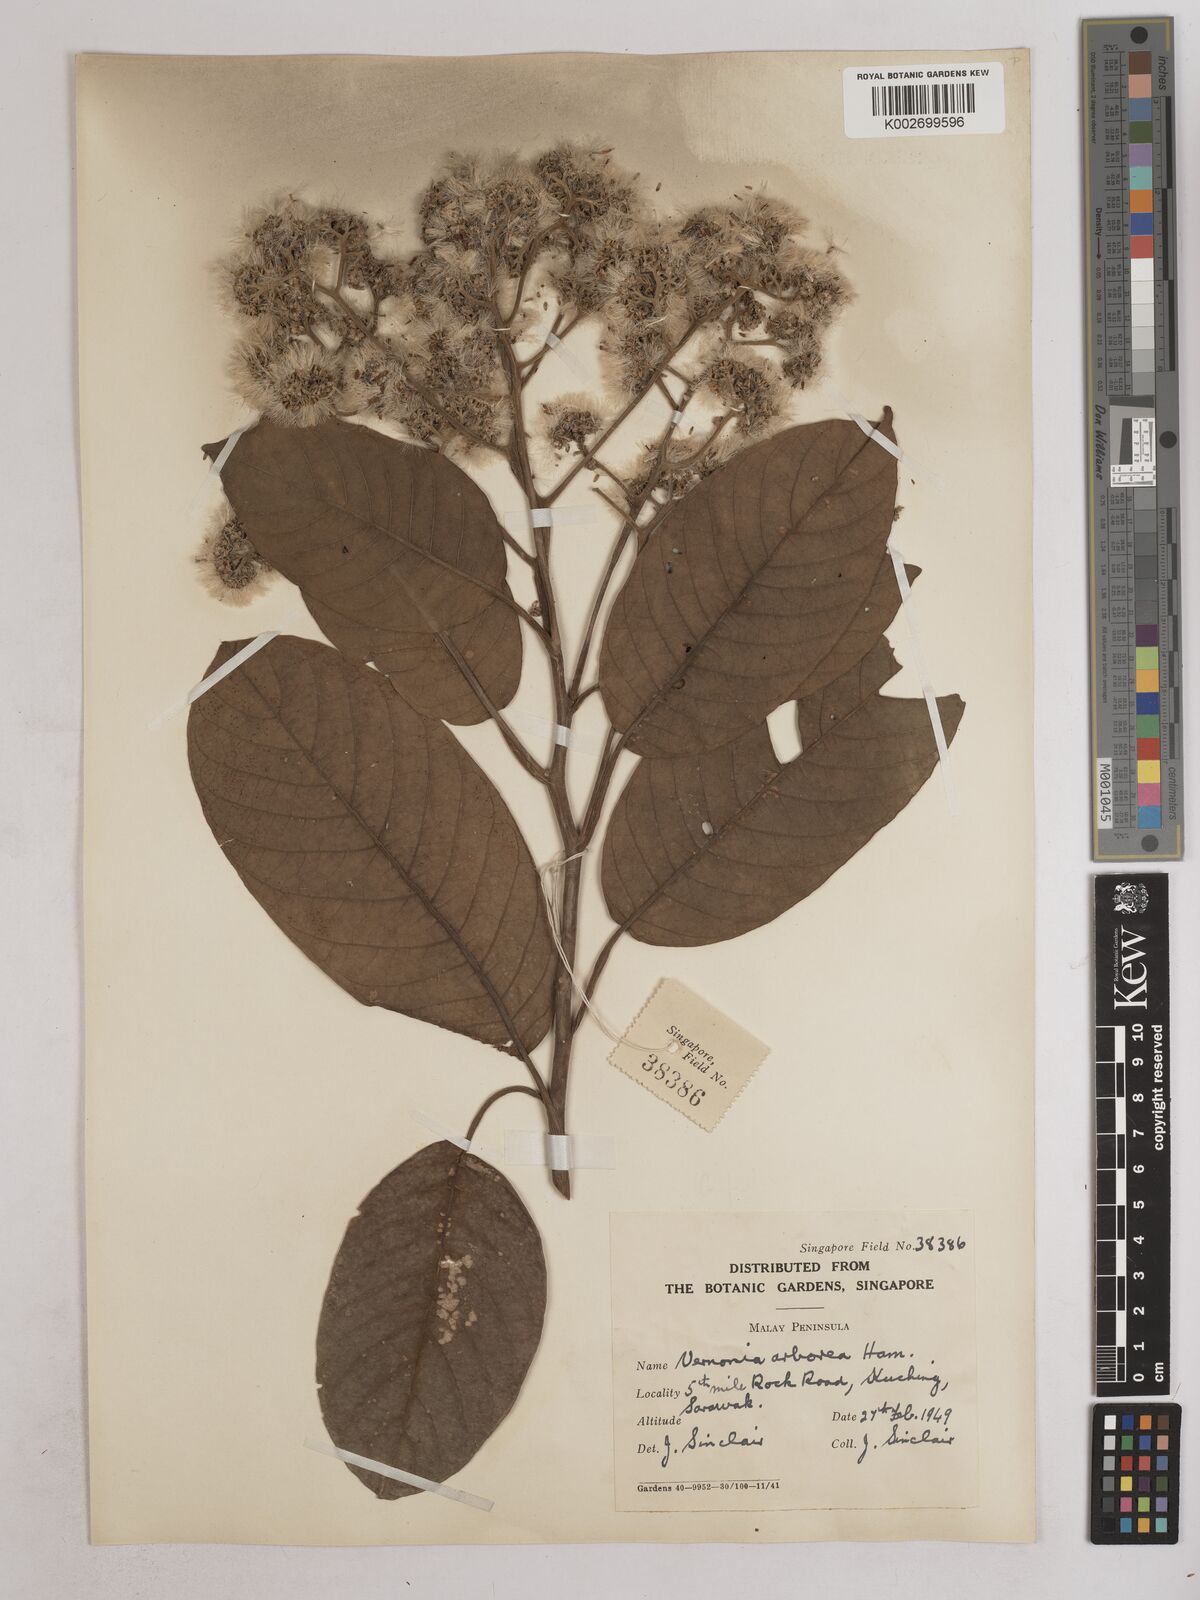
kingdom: Plantae
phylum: Tracheophyta
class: Magnoliopsida
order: Asterales
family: Asteraceae
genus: Strobocalyx
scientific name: Strobocalyx arborea
